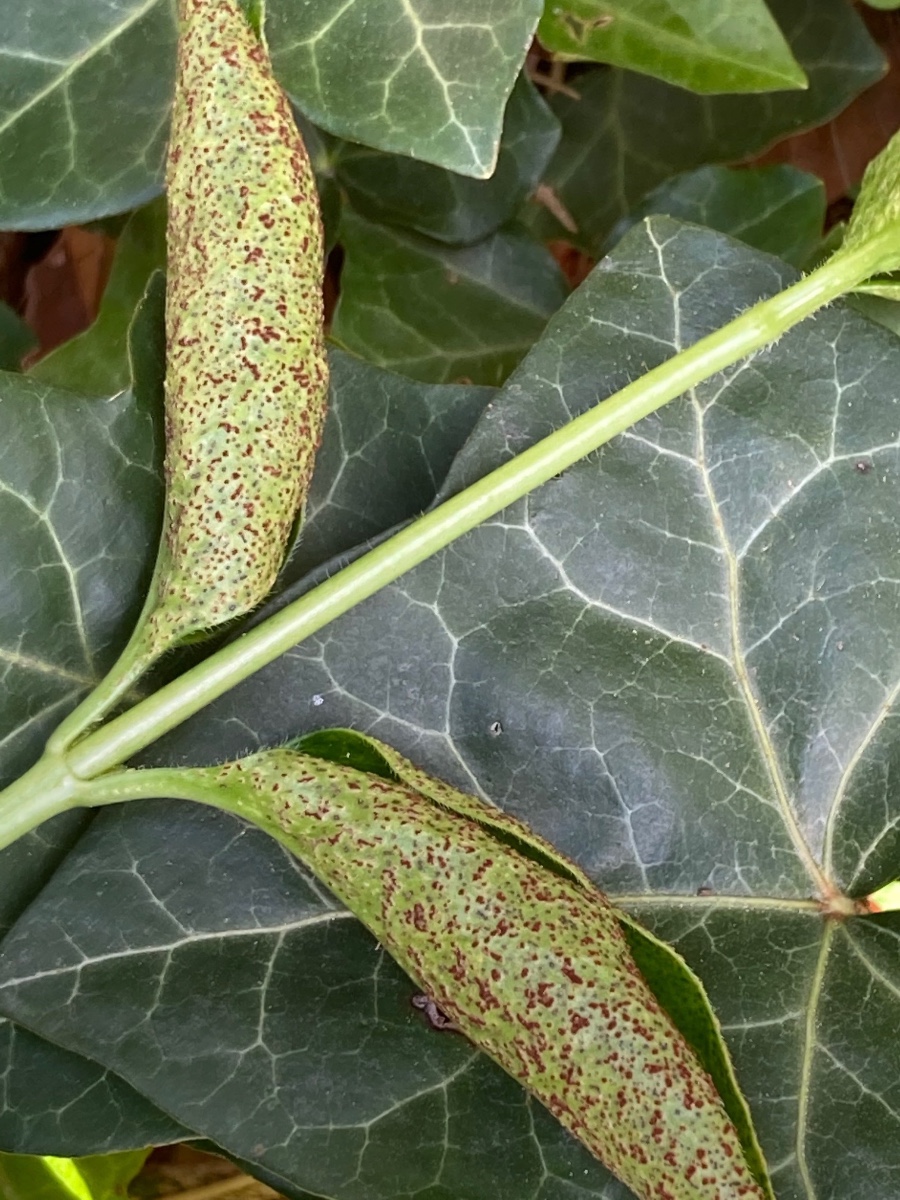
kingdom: Fungi
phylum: Basidiomycota
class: Pucciniomycetes
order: Pucciniales
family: Pucciniaceae
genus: Puccinia
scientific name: Puccinia vincae
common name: Periwinkle rust
